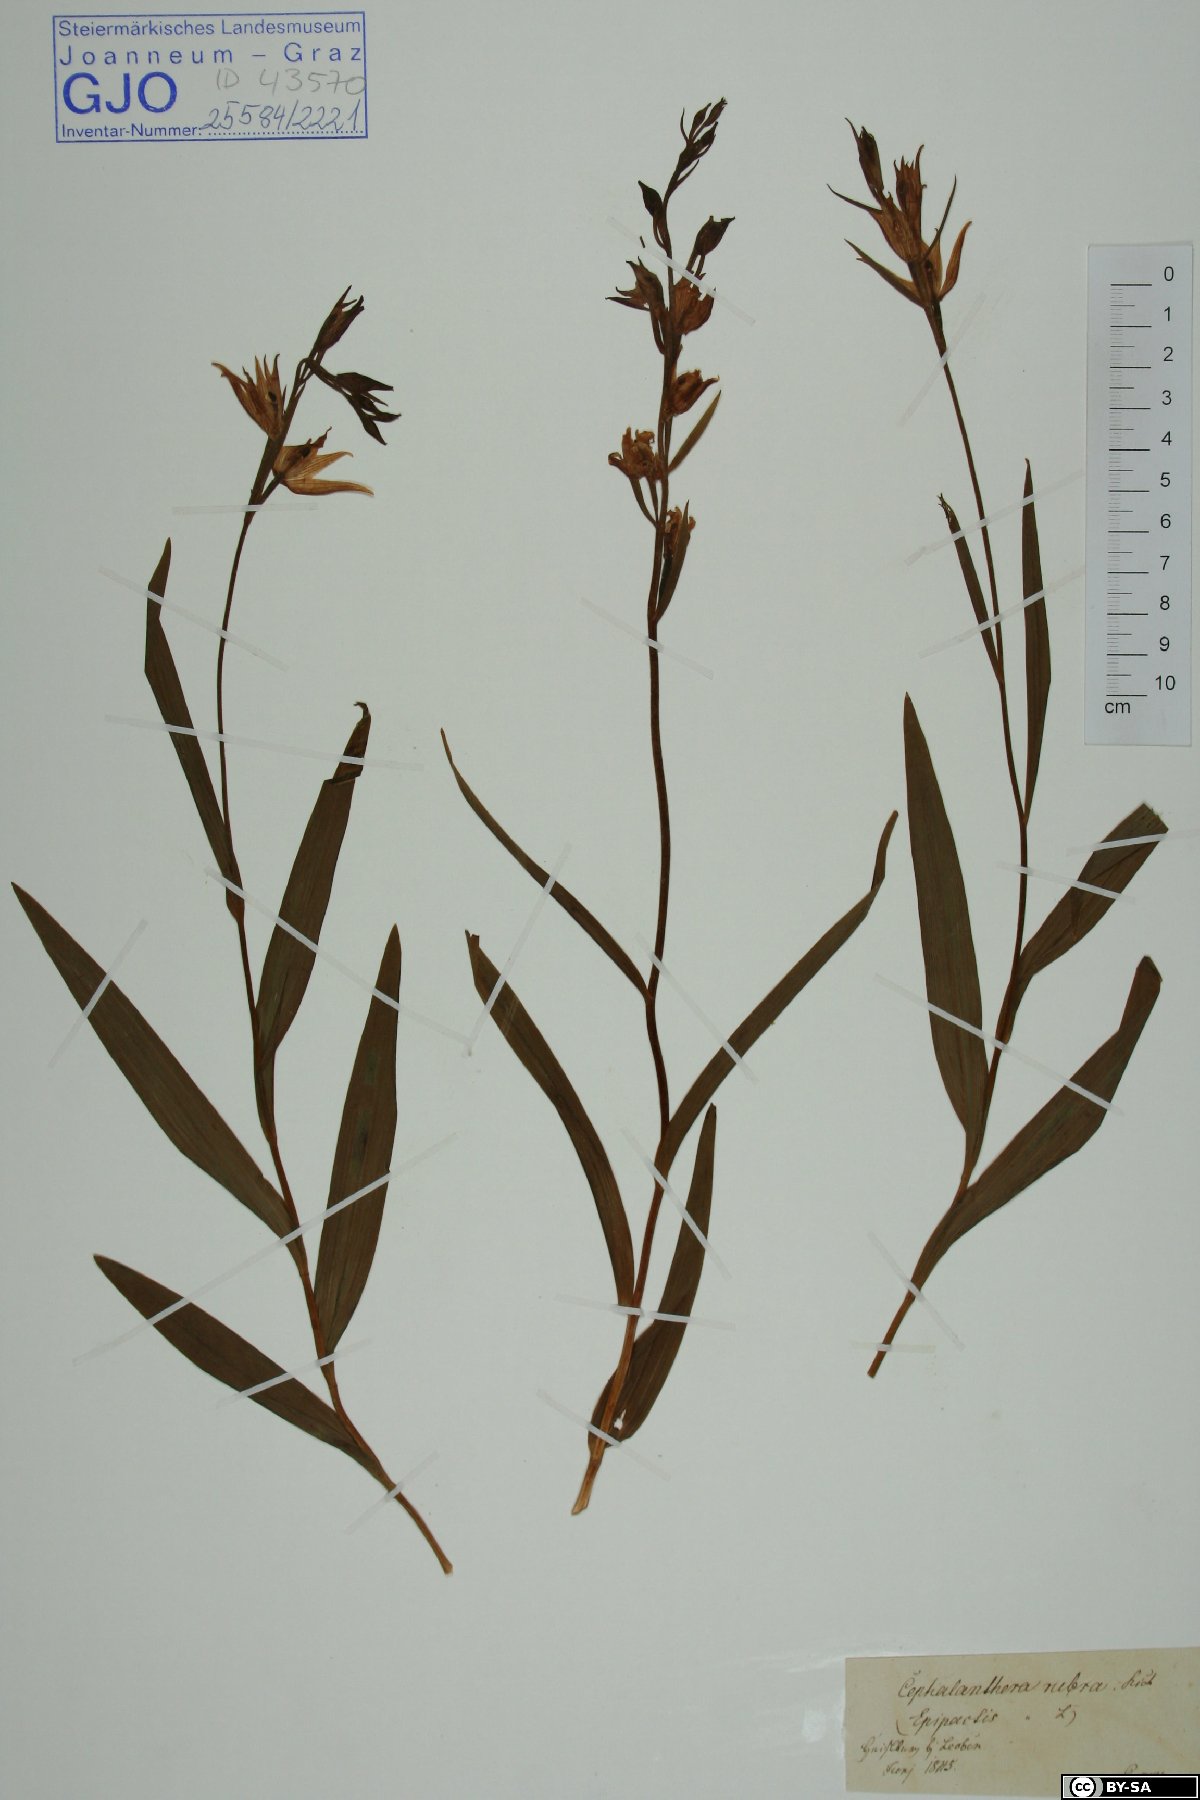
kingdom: Plantae
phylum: Tracheophyta
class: Liliopsida
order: Asparagales
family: Orchidaceae
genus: Cephalanthera
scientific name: Cephalanthera rubra
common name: Red helleborine
